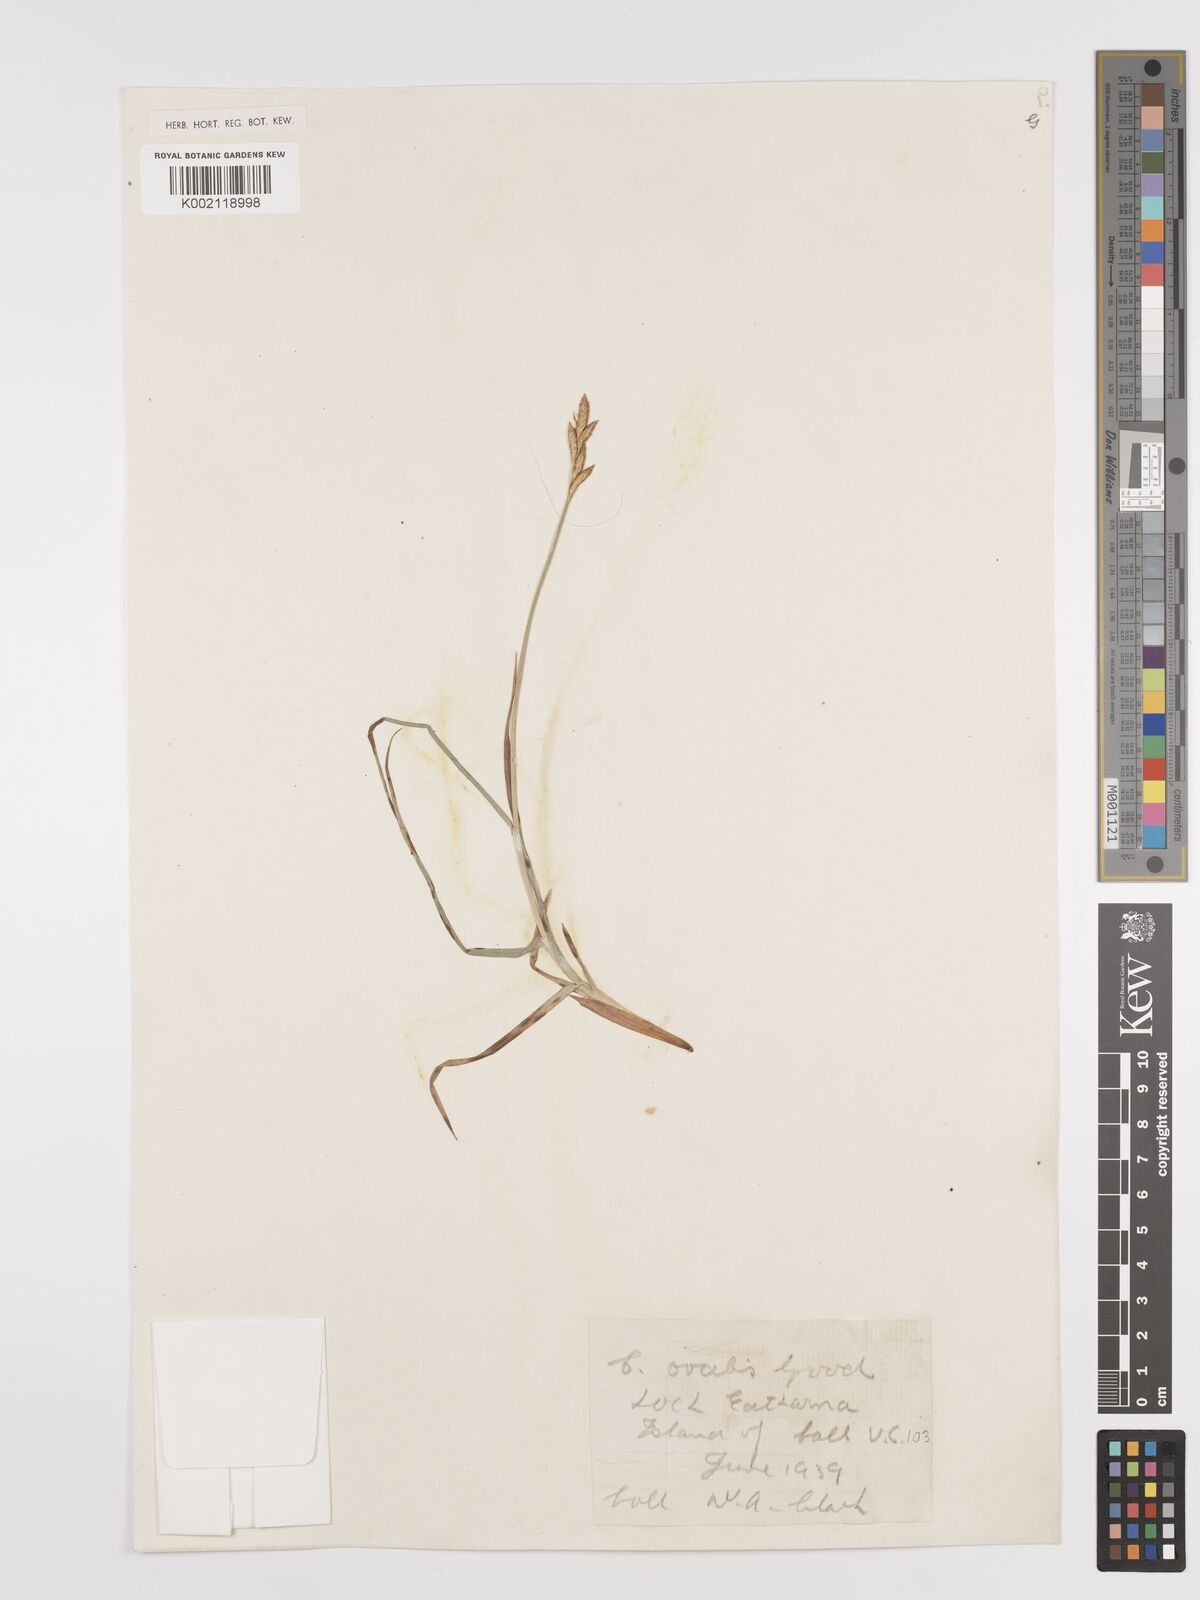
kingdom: Plantae
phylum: Tracheophyta
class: Liliopsida
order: Poales
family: Cyperaceae
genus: Carex
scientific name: Carex leporina
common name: Oval sedge
